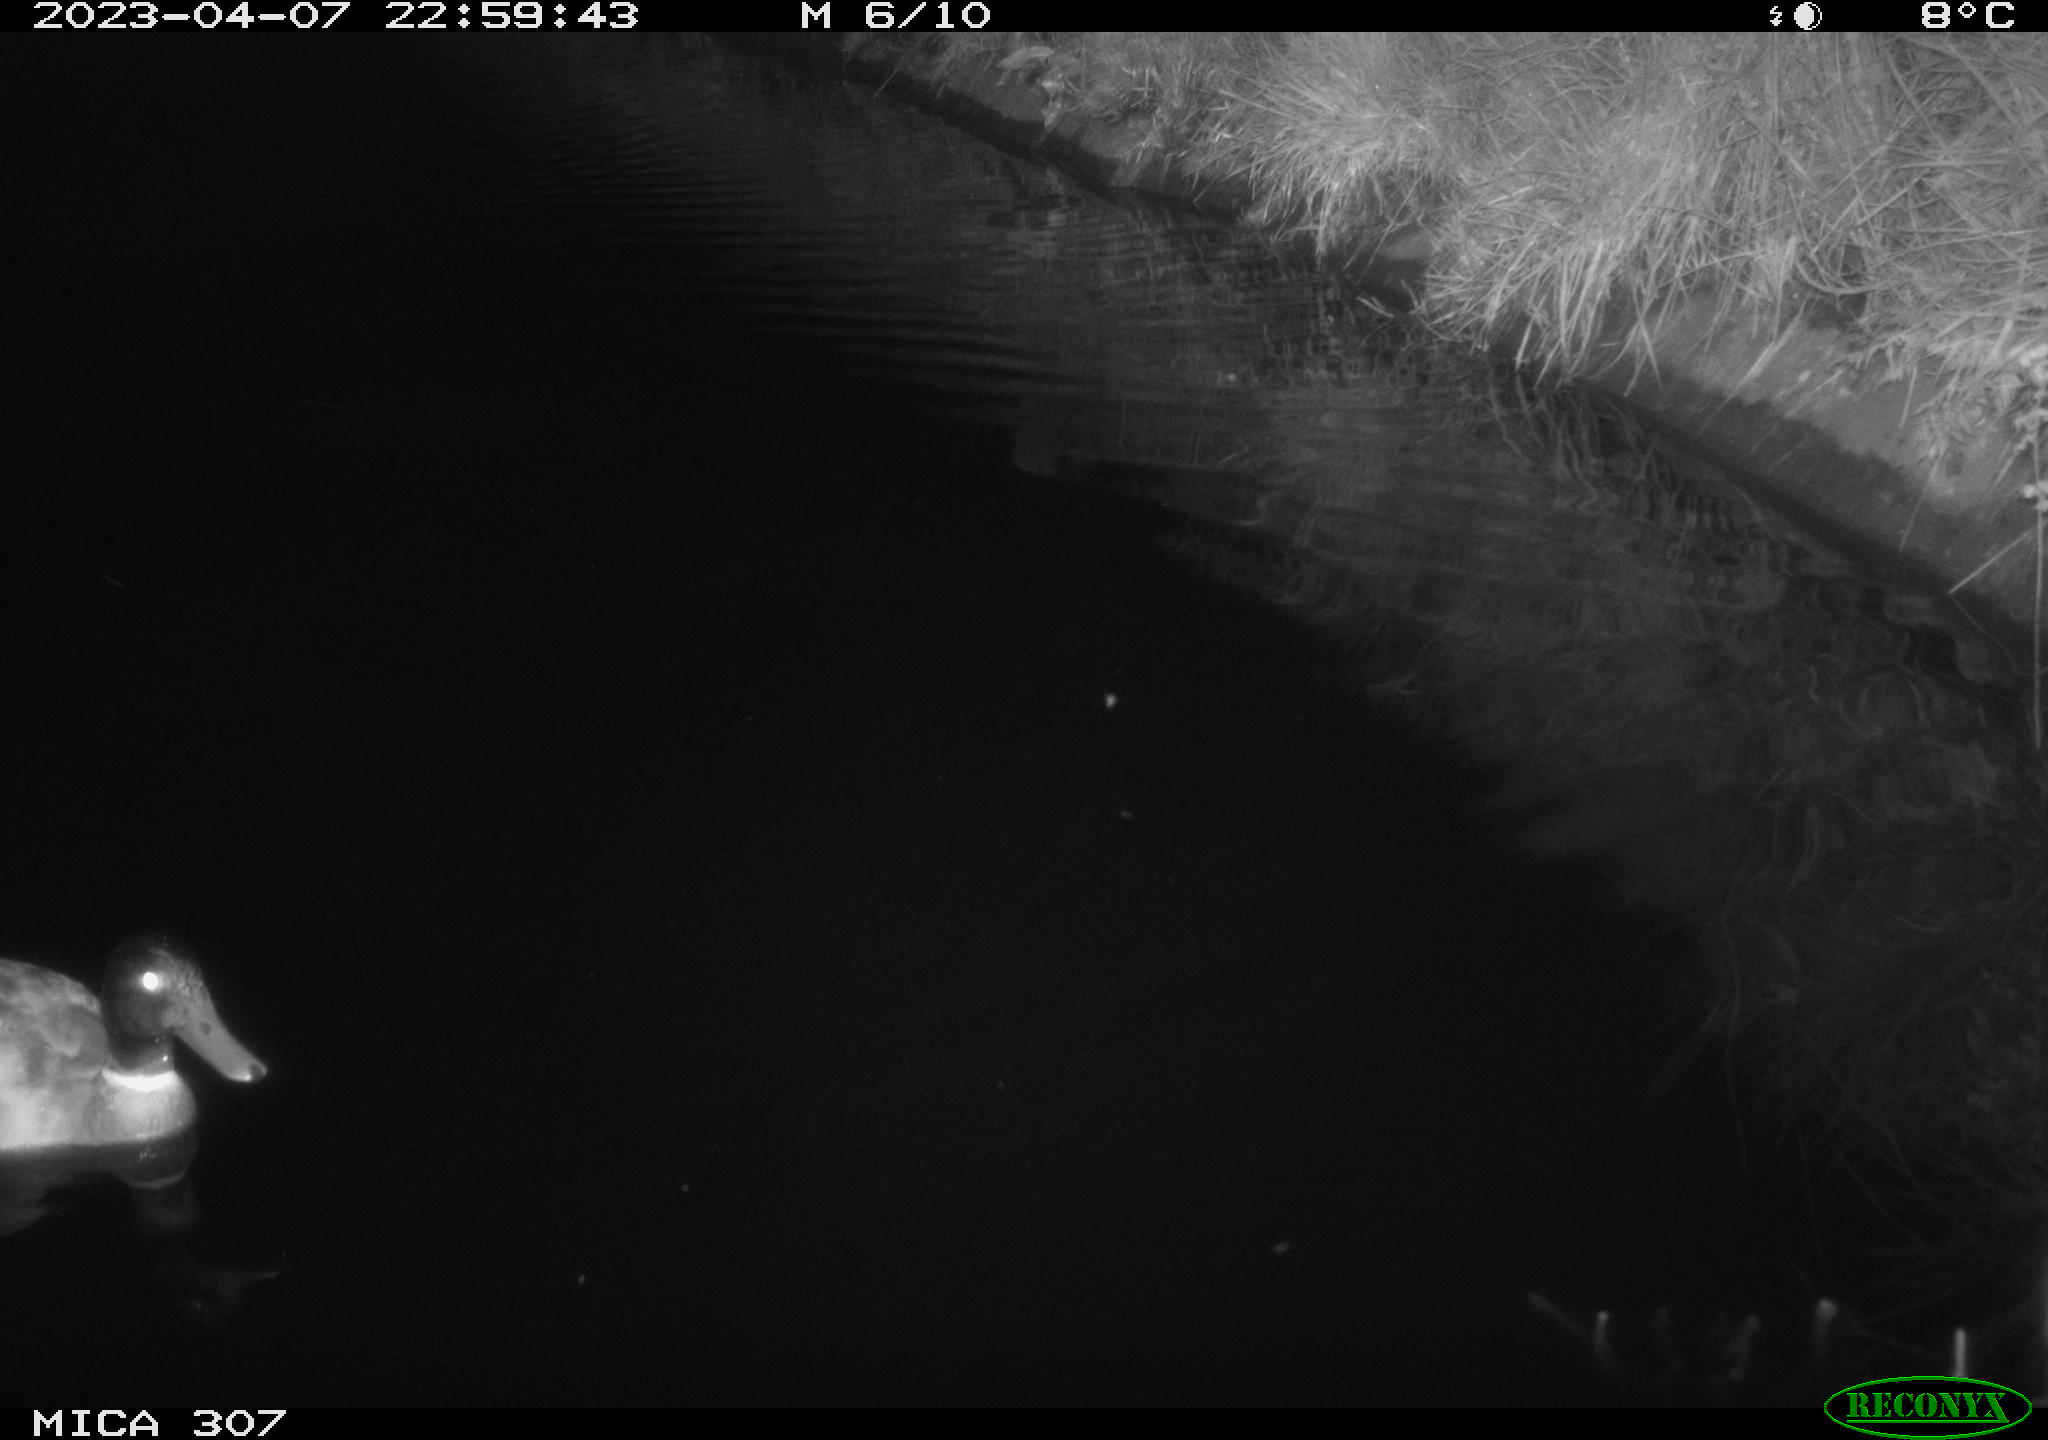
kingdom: Animalia
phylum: Chordata
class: Aves
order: Anseriformes
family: Anatidae
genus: Anas
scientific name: Anas
